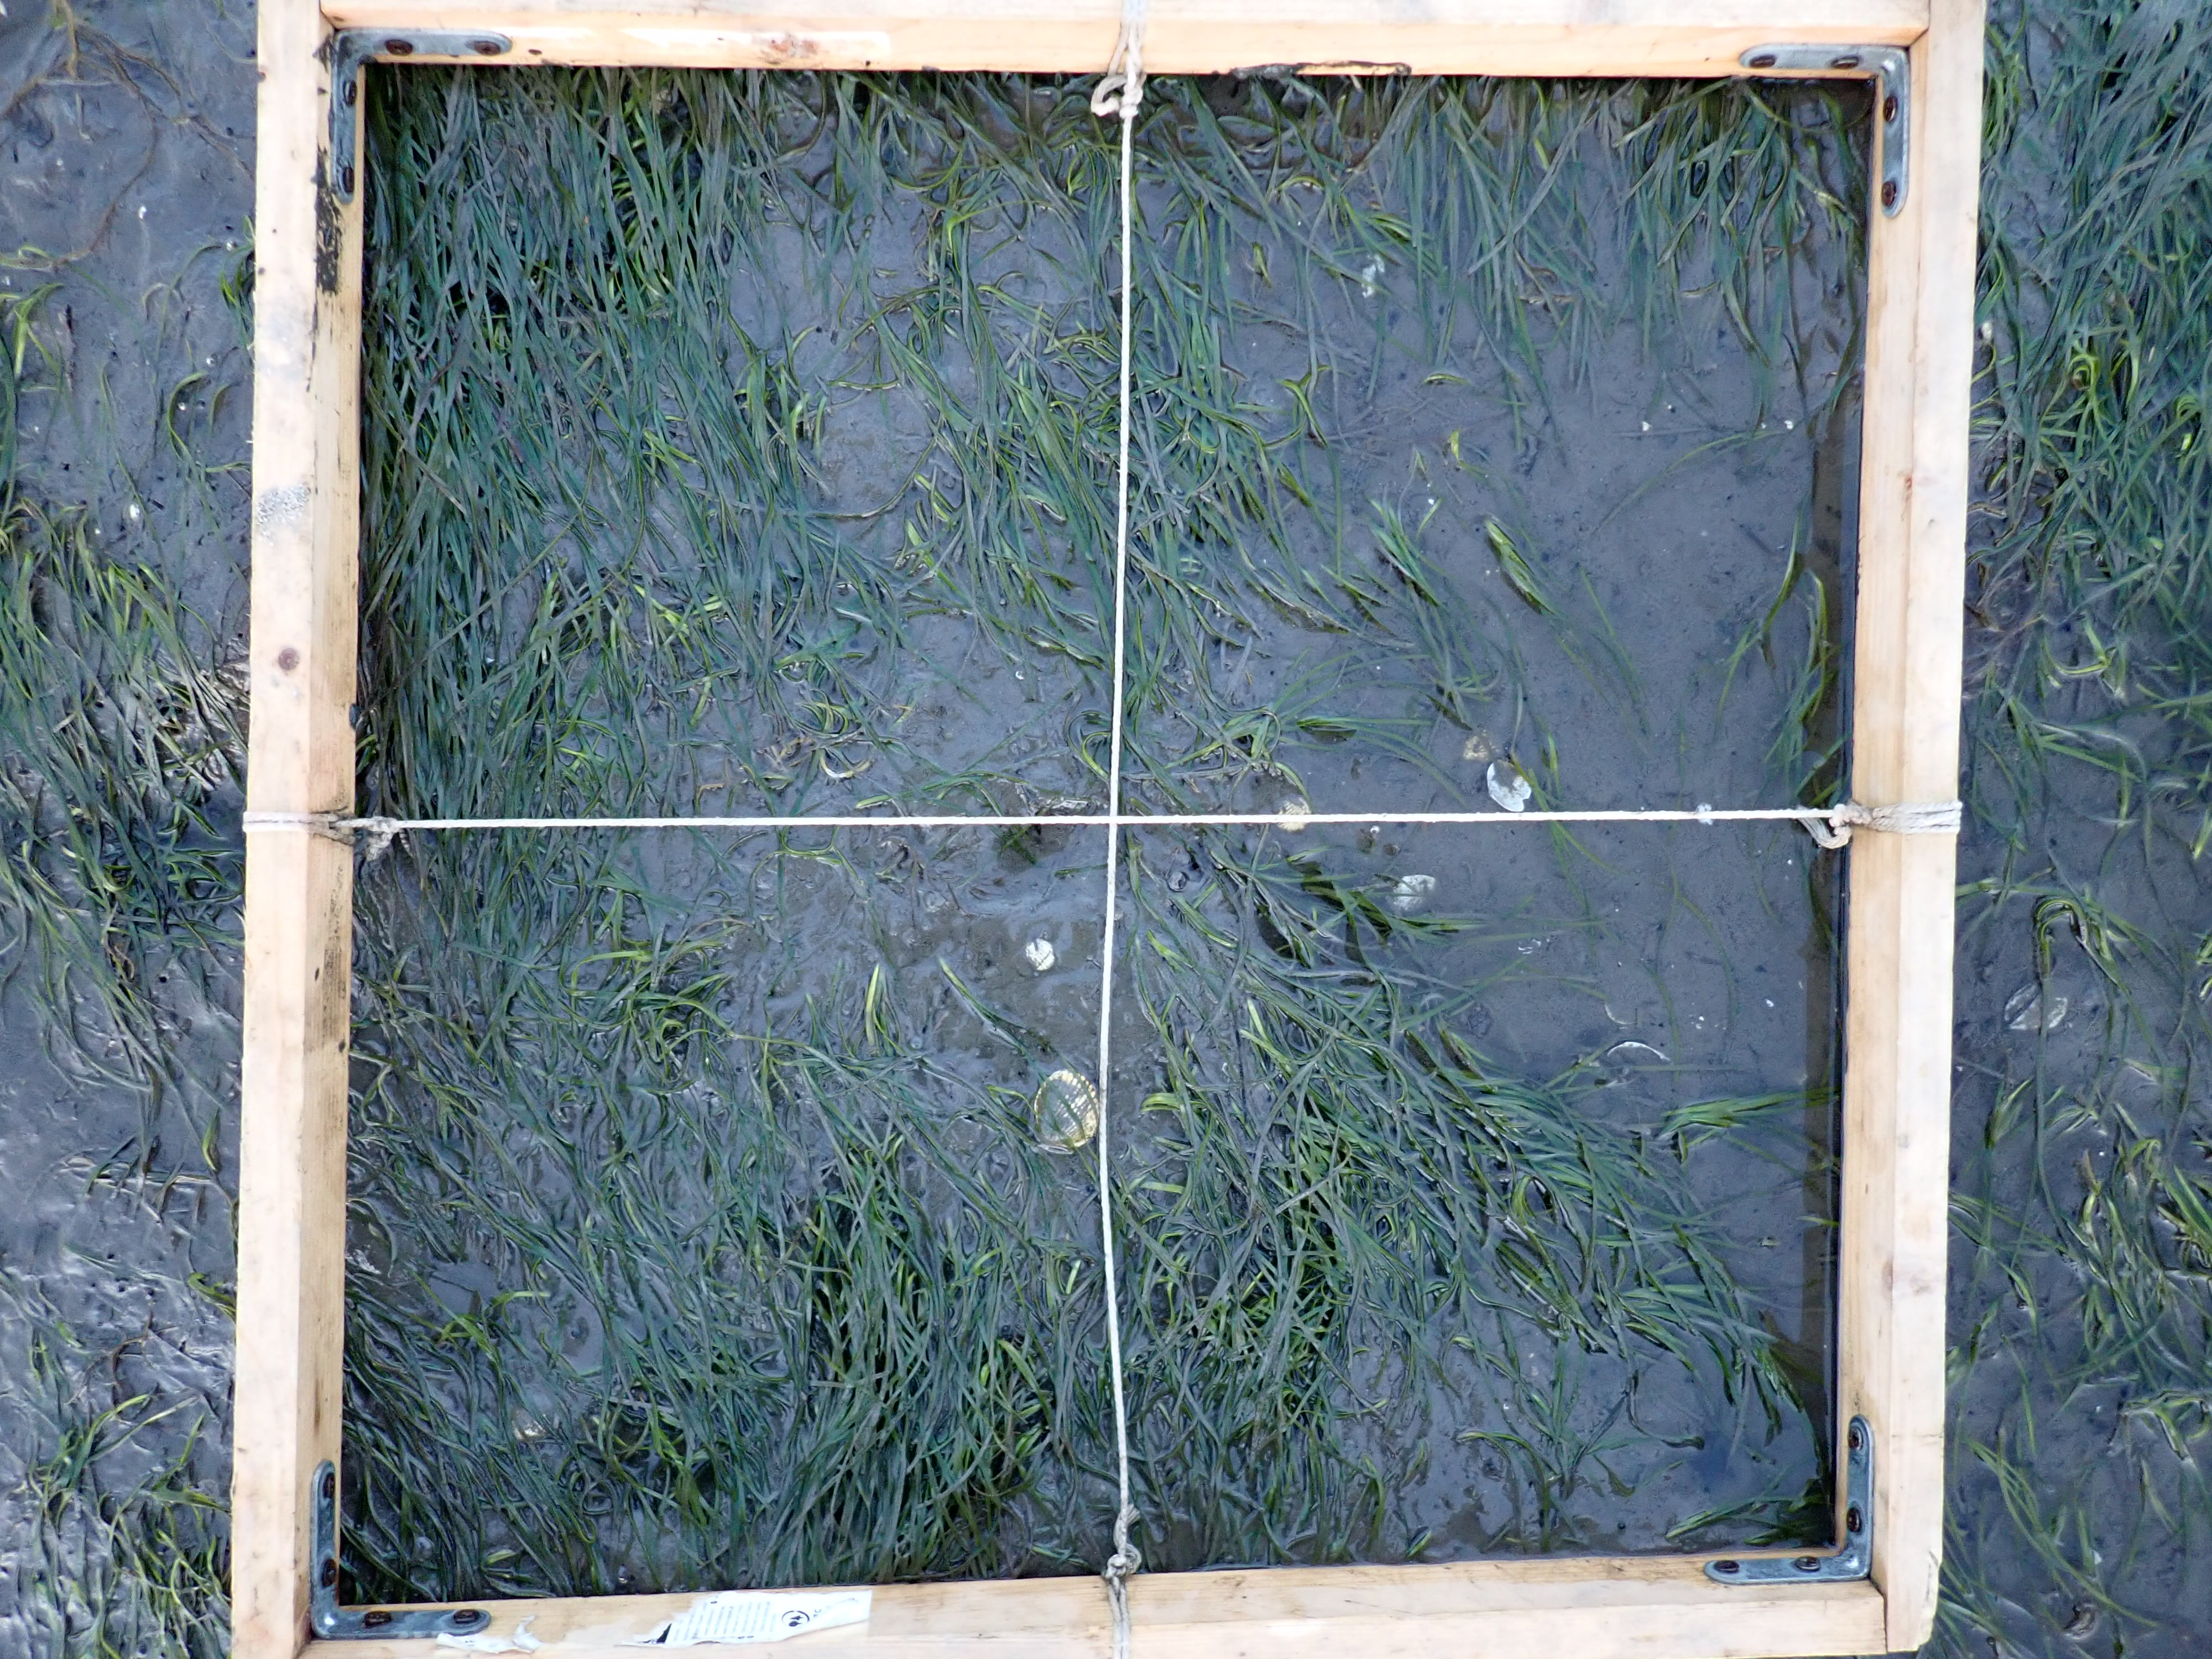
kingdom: Plantae
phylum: Tracheophyta
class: Liliopsida
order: Alismatales
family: Zosteraceae
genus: Zostera
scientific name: Zostera noltii
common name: Dwarf eelgrass
